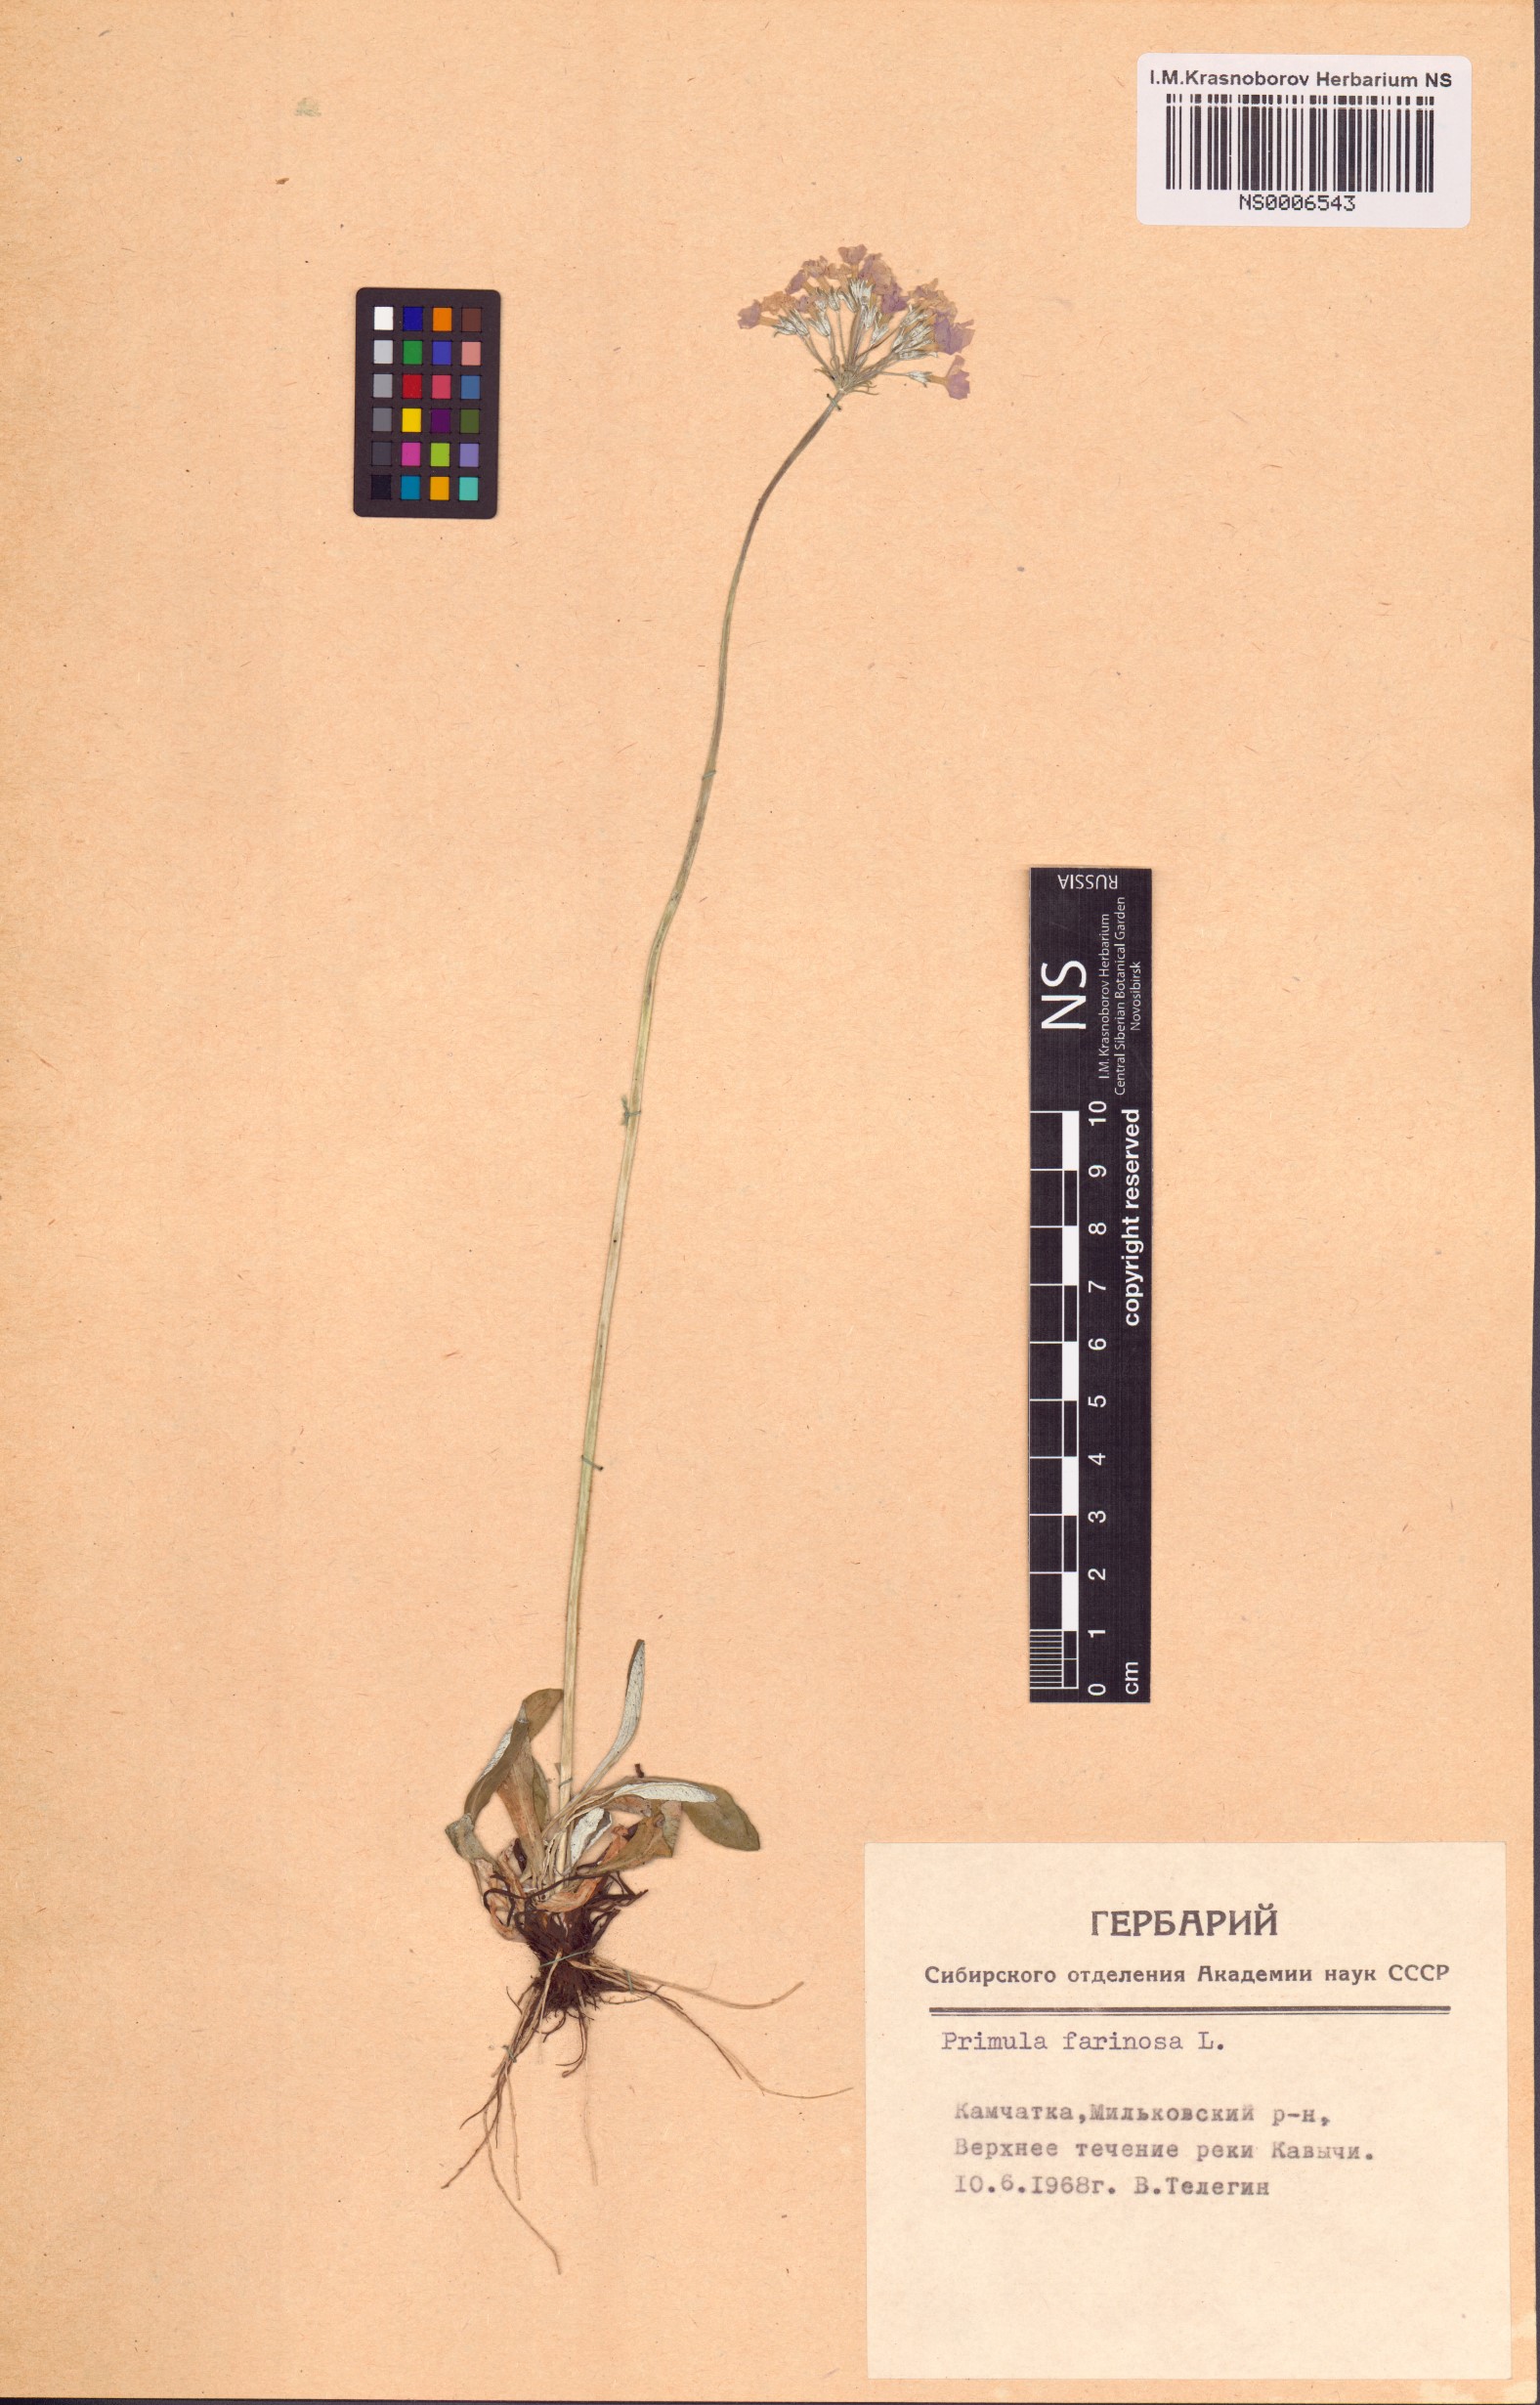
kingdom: Plantae
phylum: Tracheophyta
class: Magnoliopsida
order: Ericales
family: Primulaceae
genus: Primula
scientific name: Primula farinosa
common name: Bird's-eye primrose
